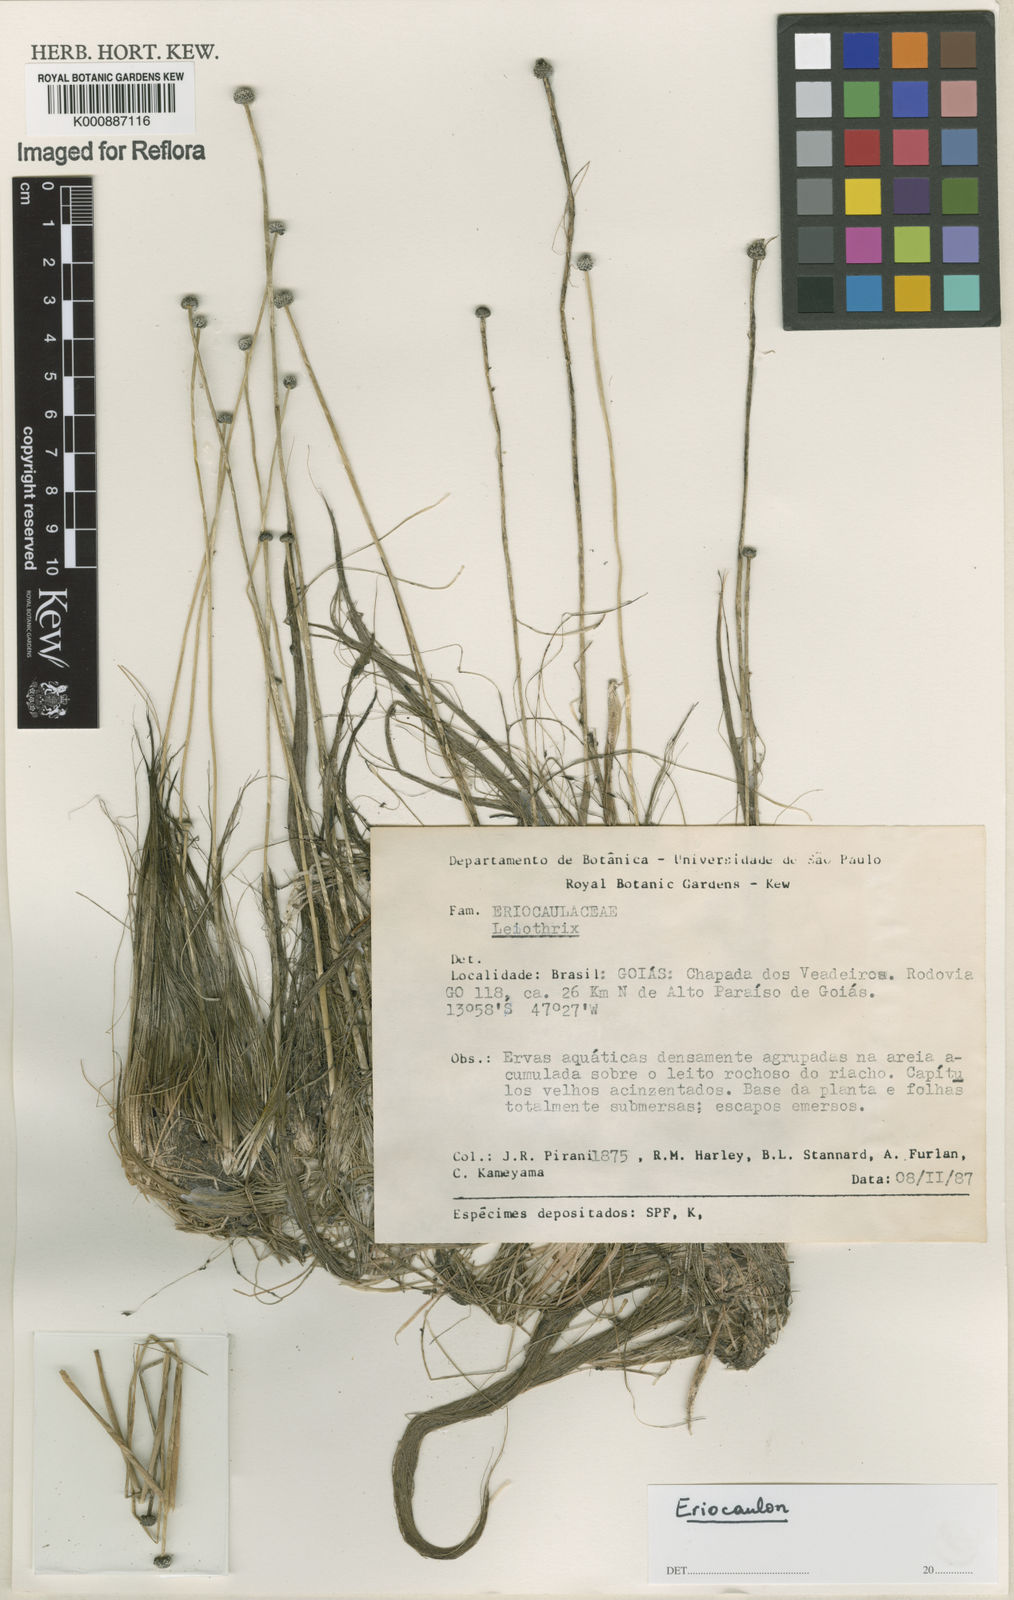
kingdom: Plantae
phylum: Tracheophyta
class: Liliopsida
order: Poales
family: Eriocaulaceae
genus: Eriocaulon
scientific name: Eriocaulon
